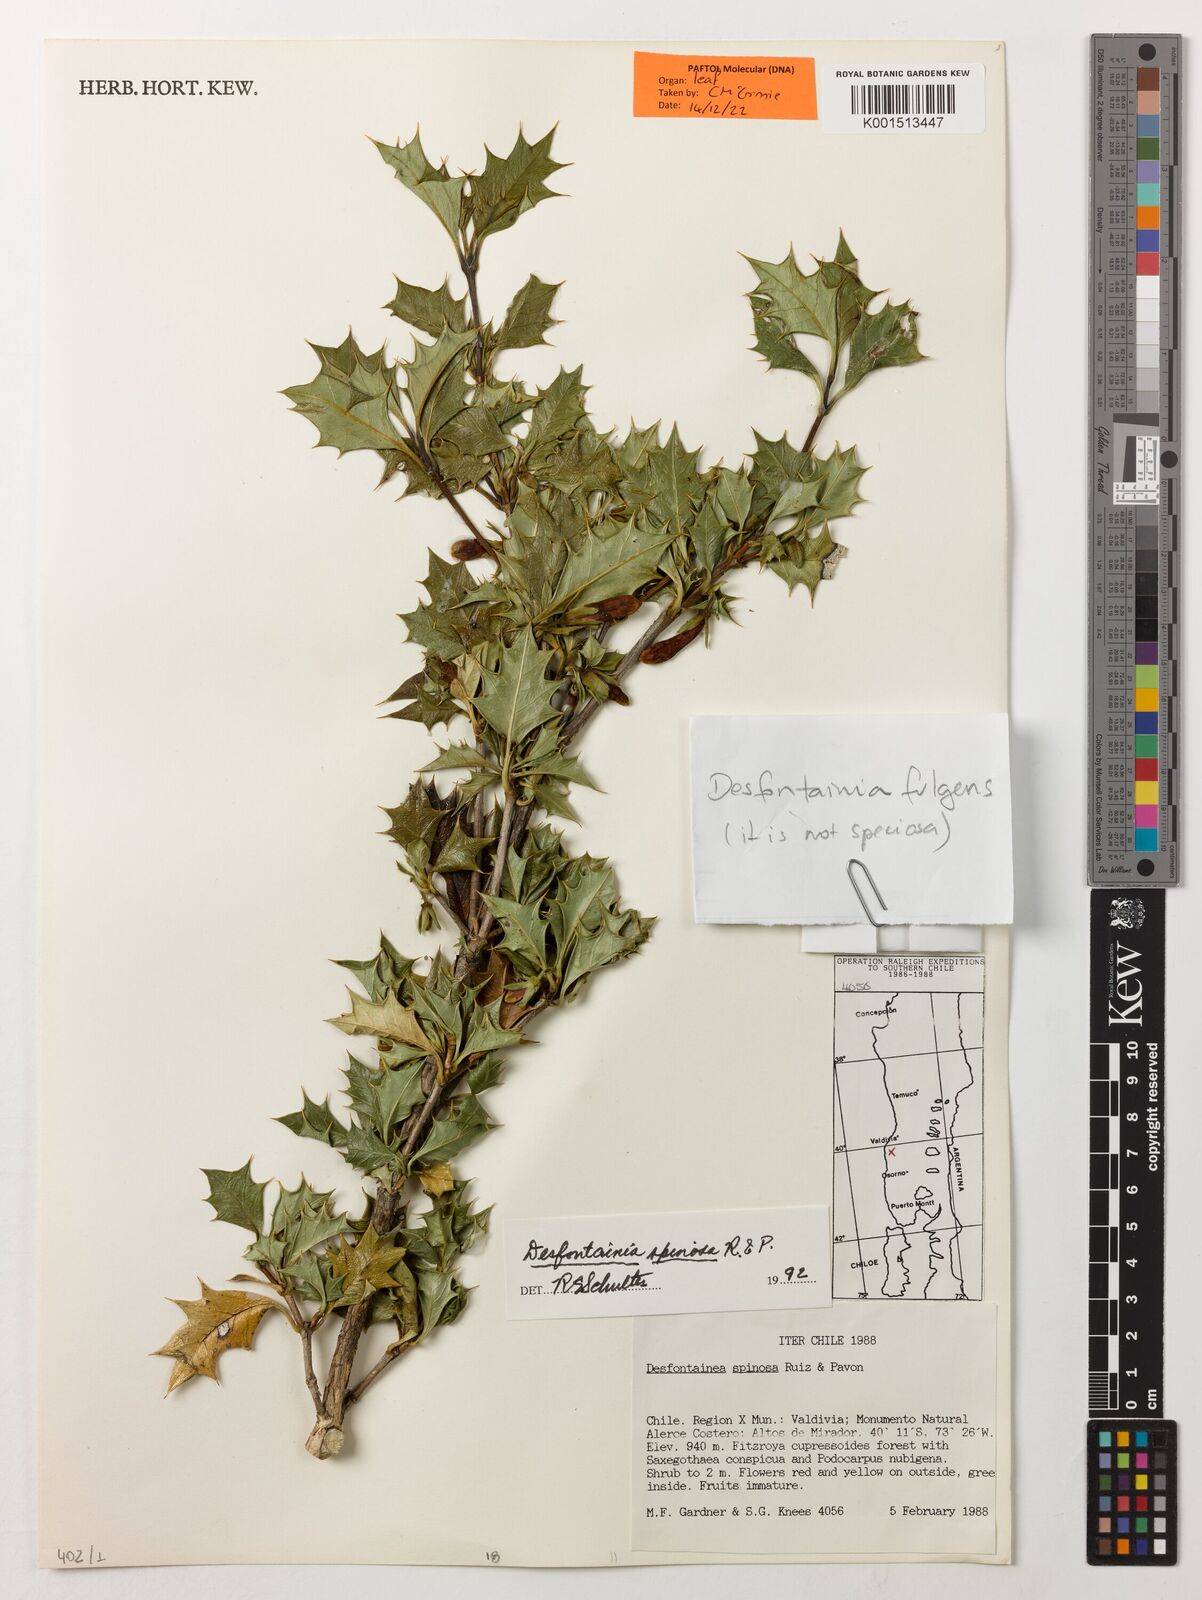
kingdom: Plantae
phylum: Tracheophyta
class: Magnoliopsida
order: Bruniales
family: Columelliaceae
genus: Desfontainia
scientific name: Desfontainia fulgens
